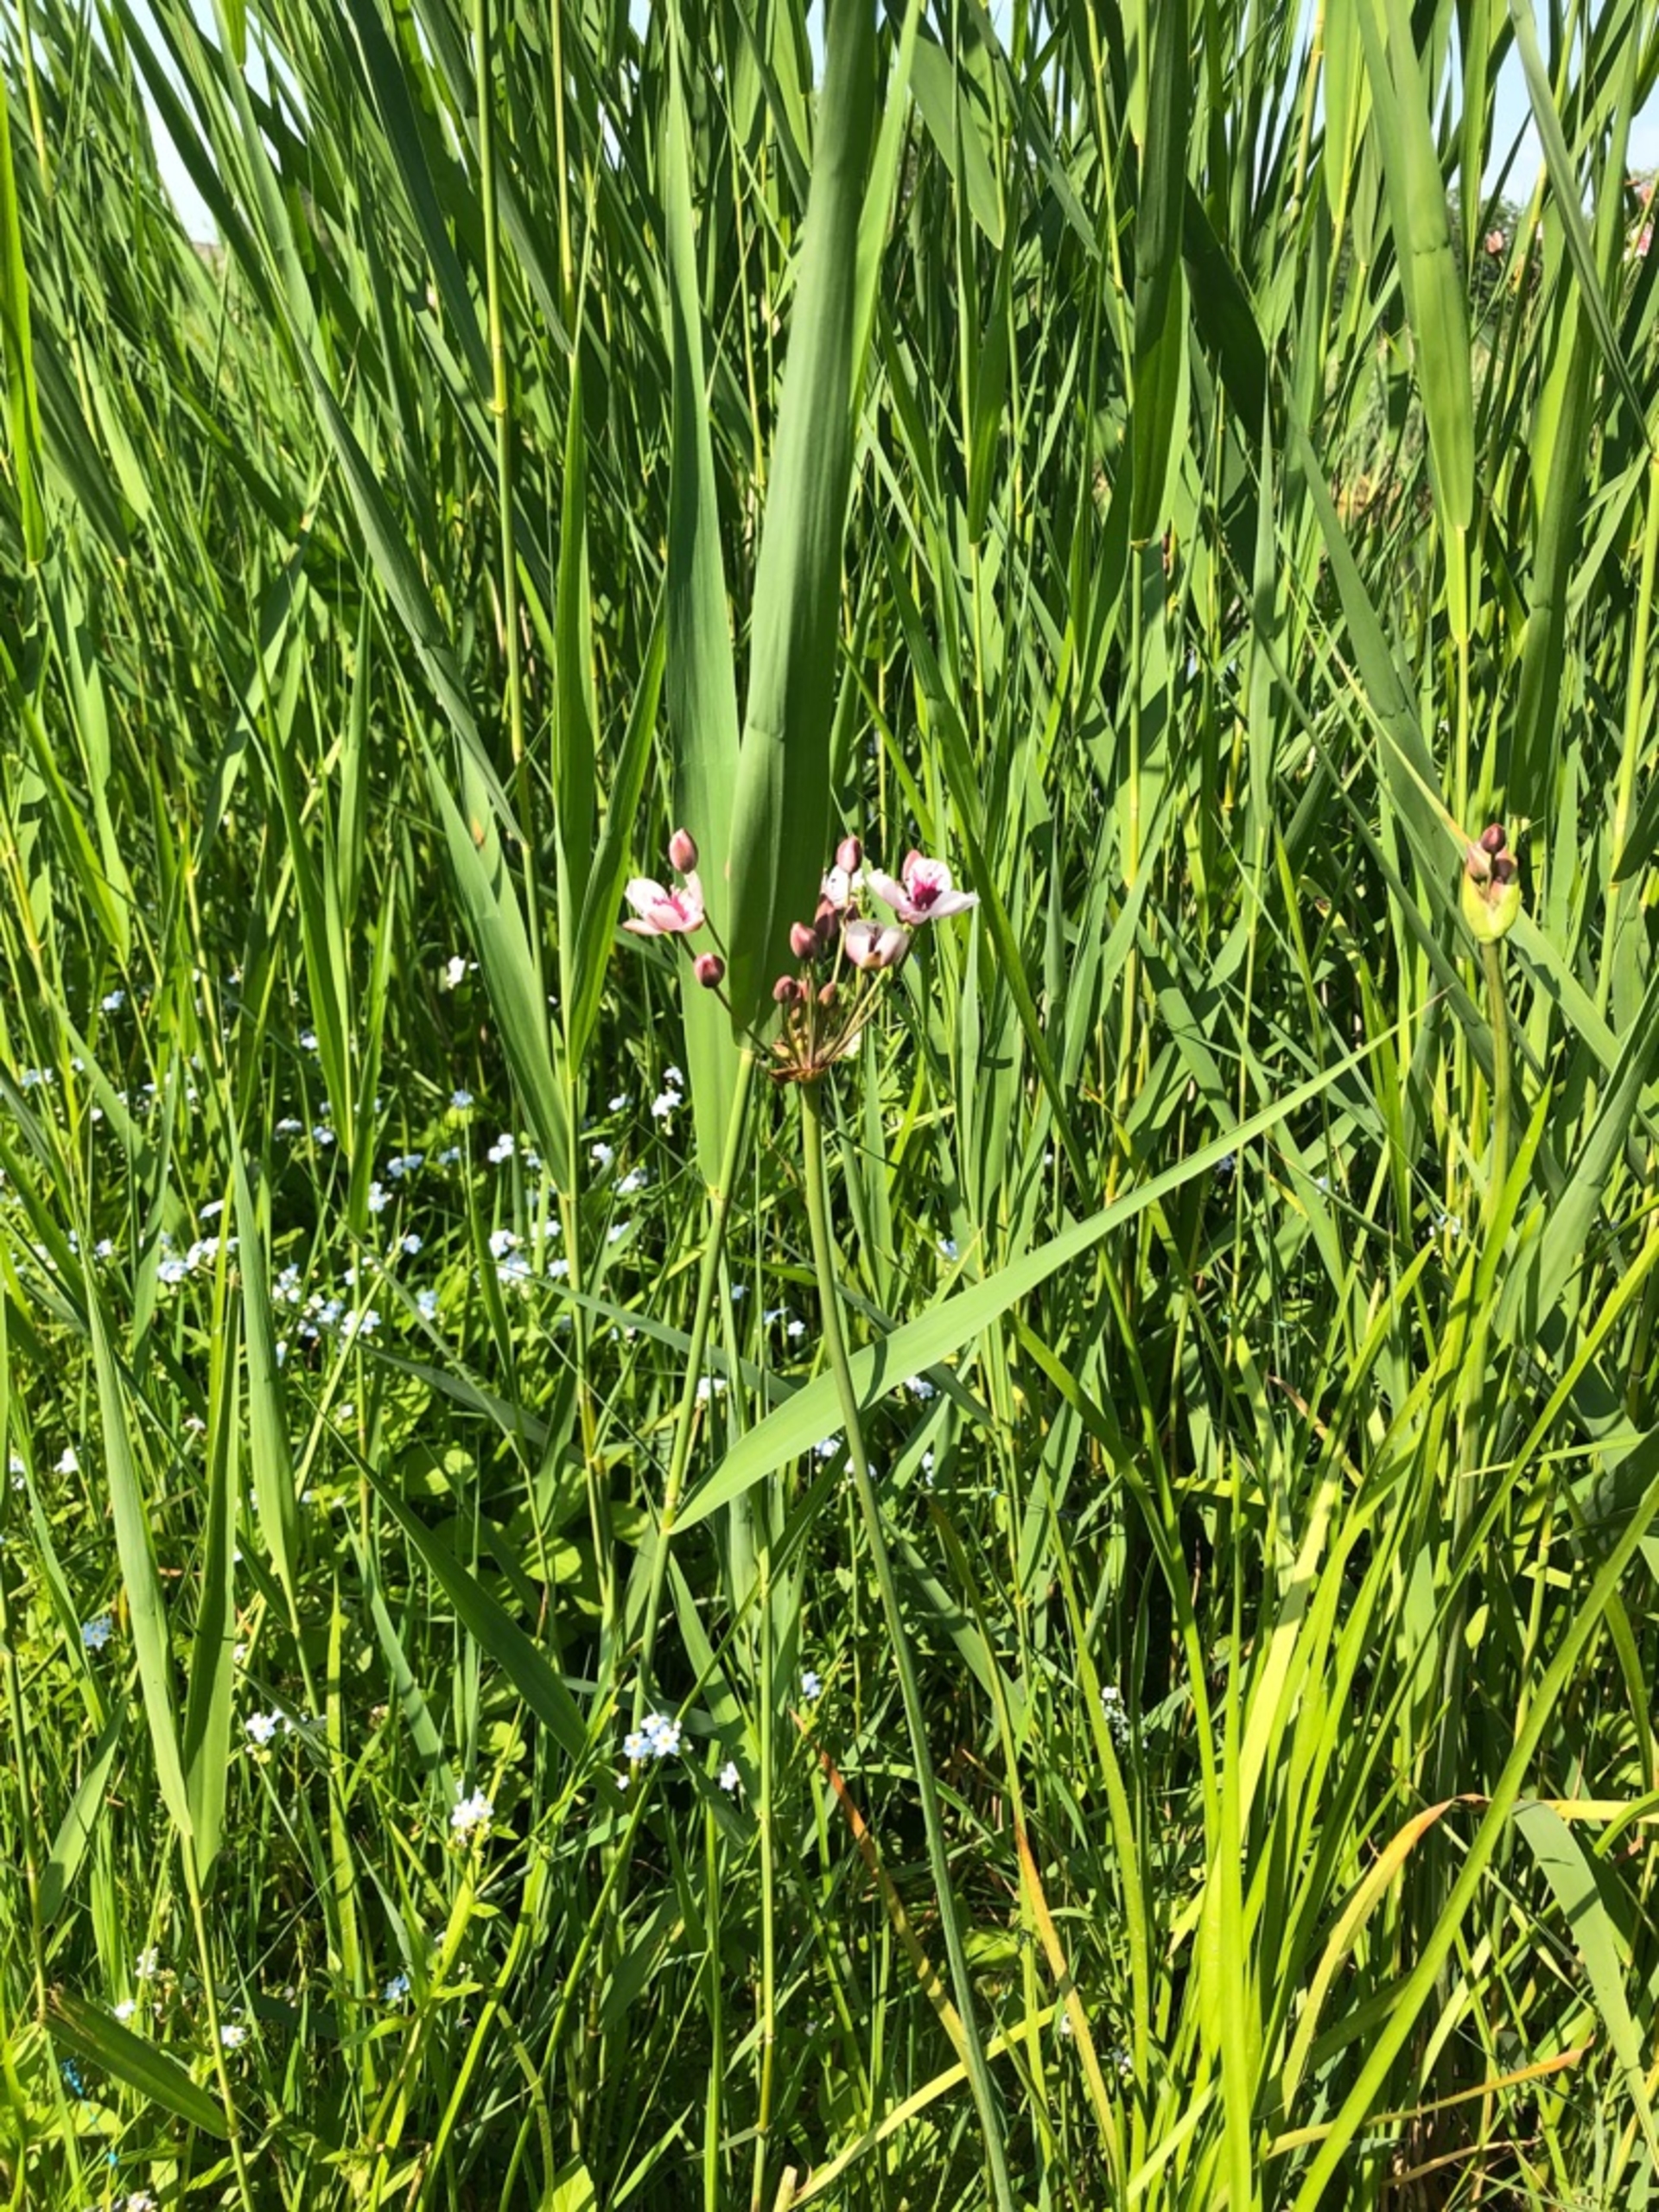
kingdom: Plantae
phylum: Tracheophyta
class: Liliopsida
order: Alismatales
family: Butomaceae
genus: Butomus
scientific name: Butomus umbellatus
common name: Brudelys
